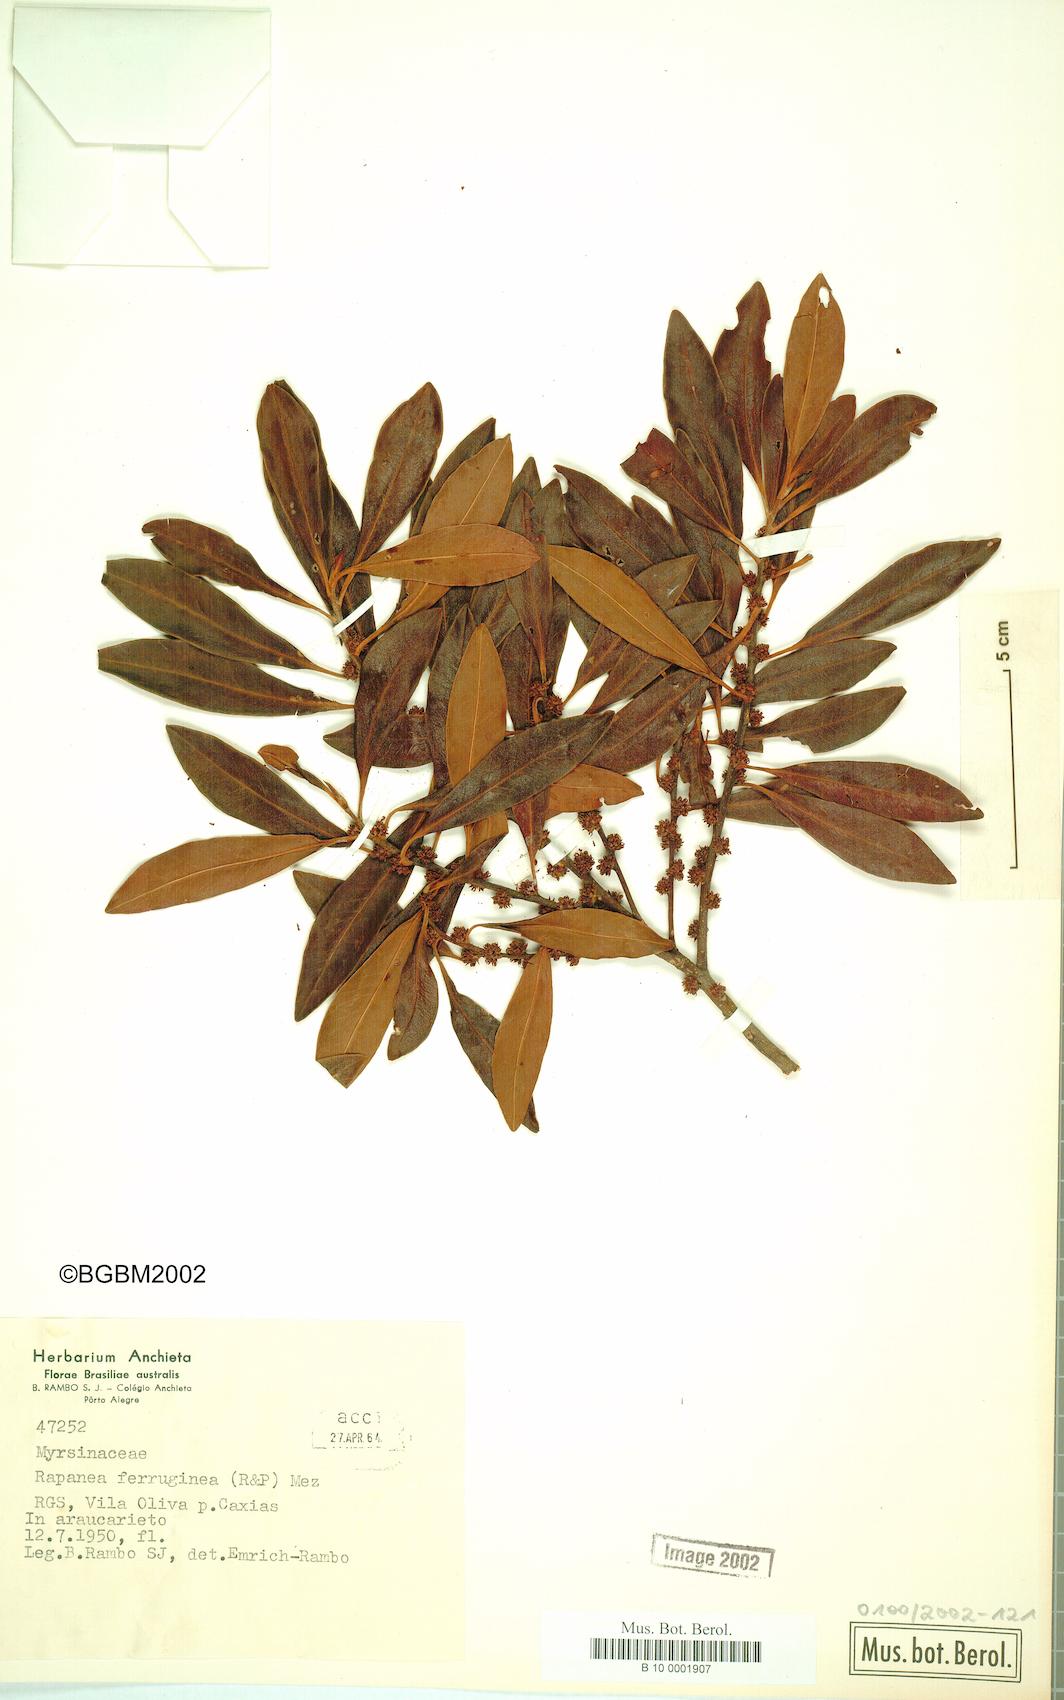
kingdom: Plantae
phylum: Tracheophyta
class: Magnoliopsida
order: Ericales
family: Primulaceae
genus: Myrsine
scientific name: Myrsine coriacea
